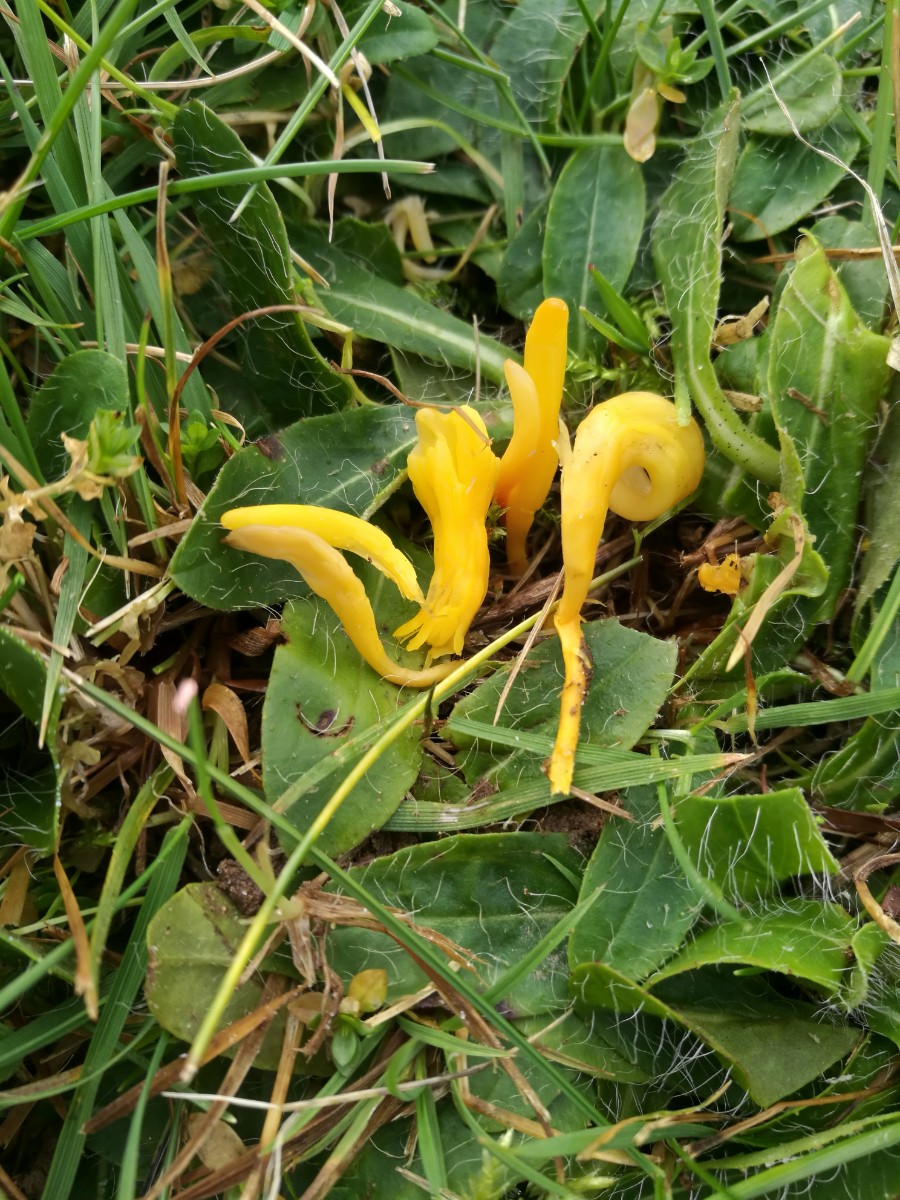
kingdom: Fungi
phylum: Basidiomycota
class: Agaricomycetes
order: Agaricales
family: Clavariaceae
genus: Clavulinopsis
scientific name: Clavulinopsis helvola
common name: orangegul køllesvamp
